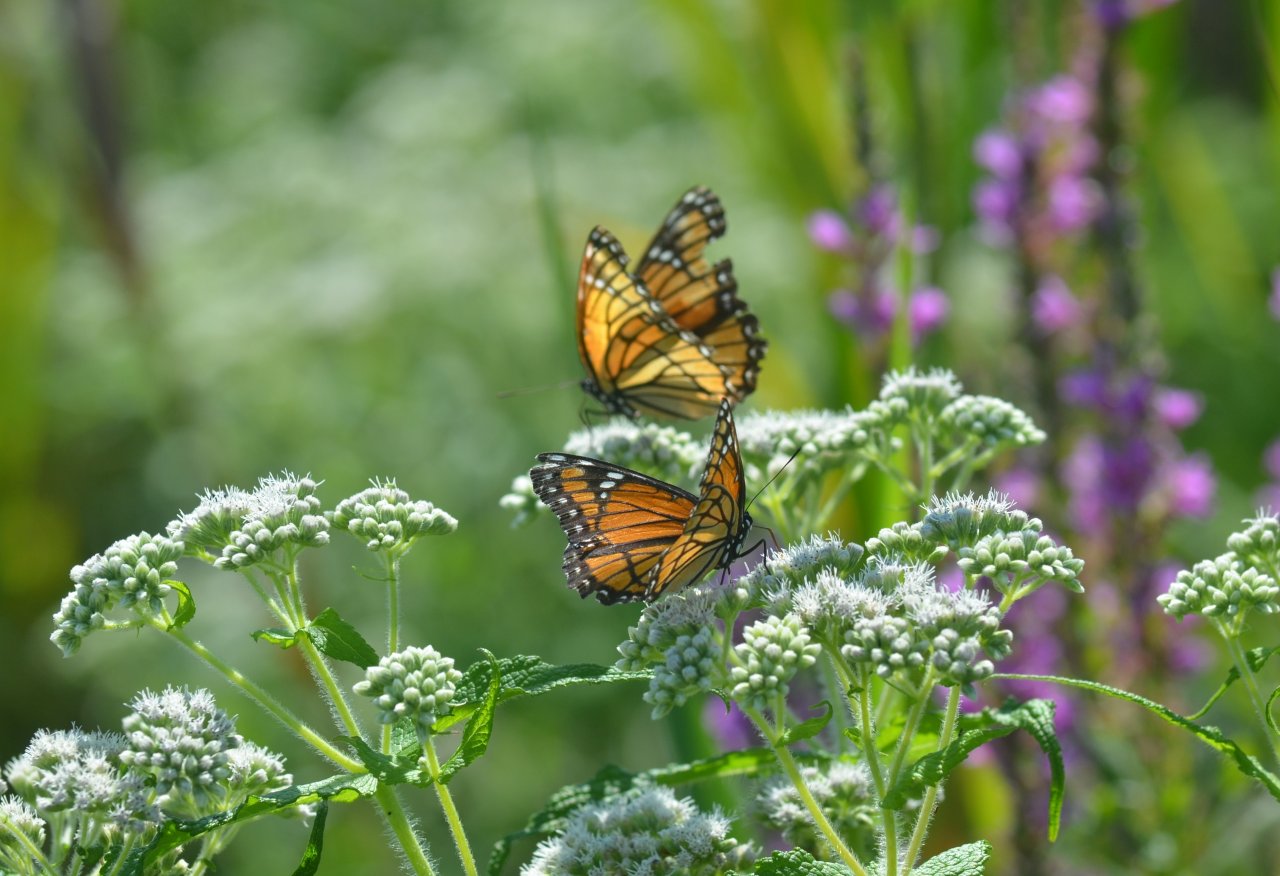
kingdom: Animalia
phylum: Arthropoda
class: Insecta
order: Lepidoptera
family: Nymphalidae
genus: Limenitis
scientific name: Limenitis archippus
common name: Viceroy
